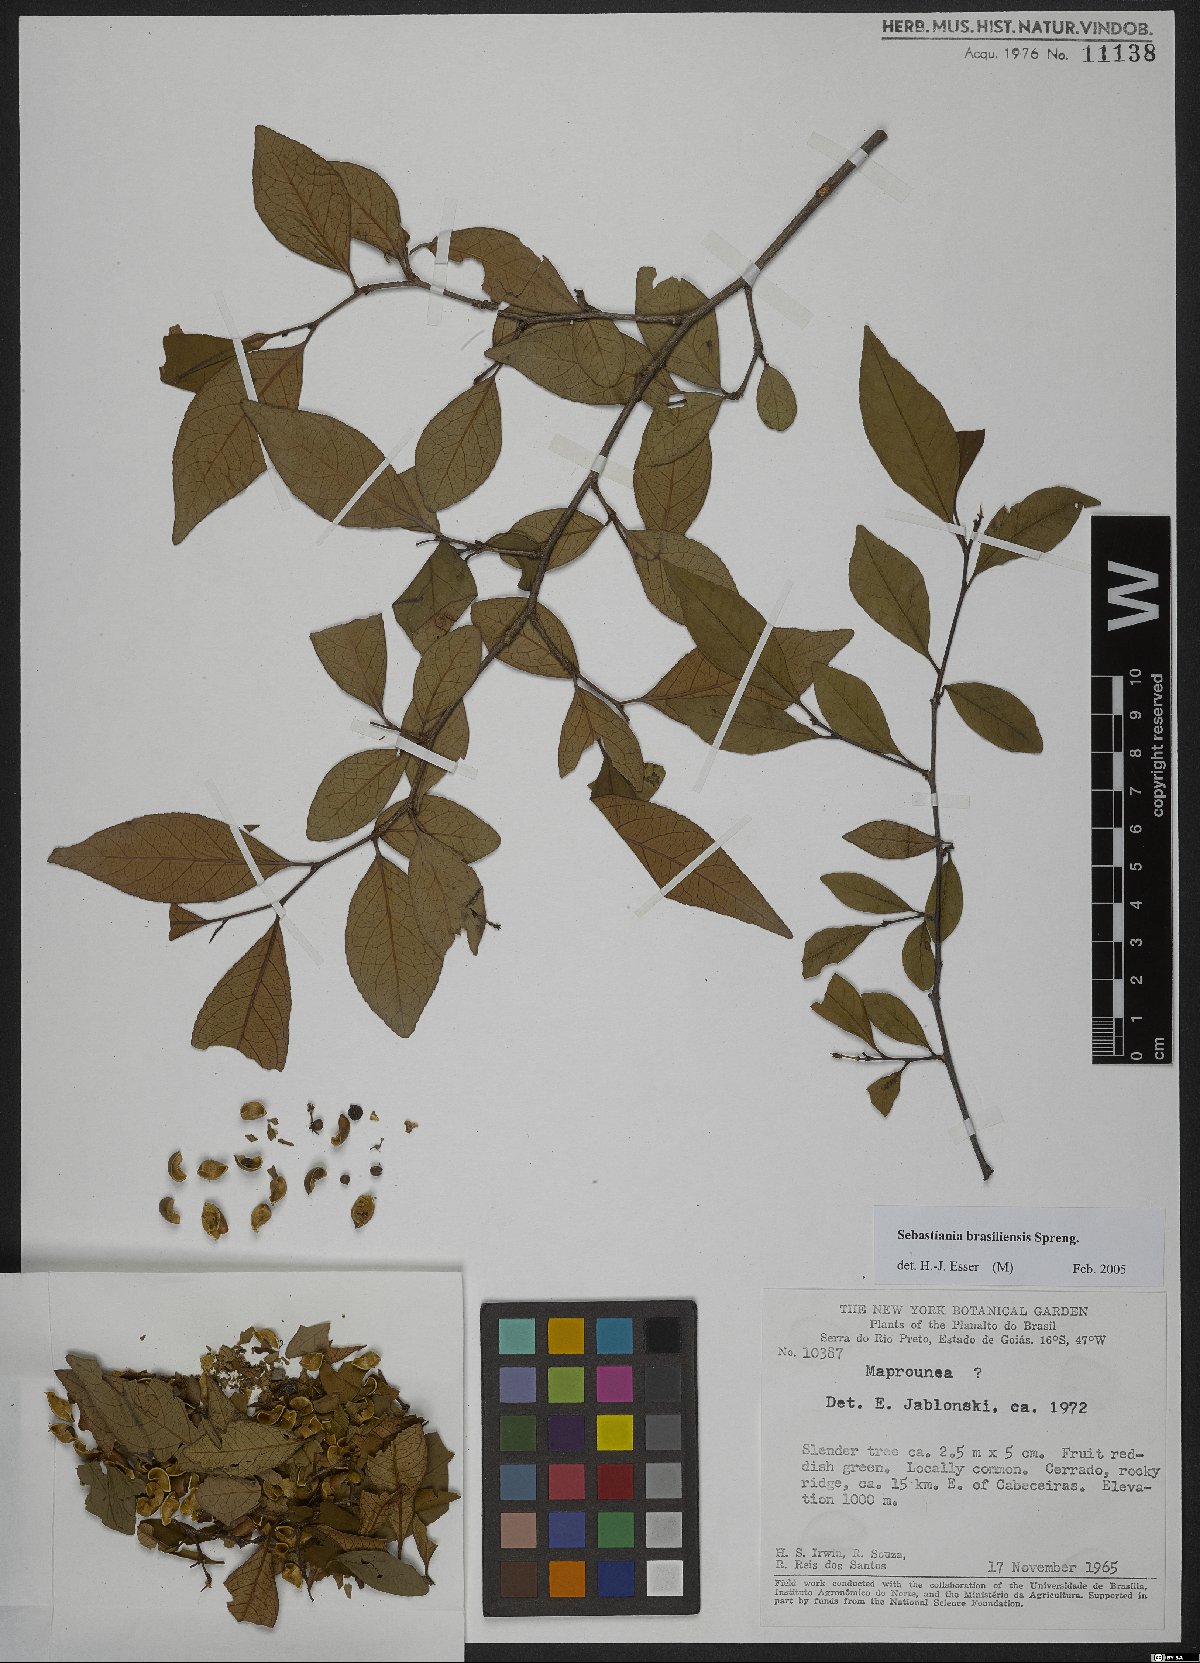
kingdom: Plantae
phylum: Tracheophyta
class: Magnoliopsida
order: Malpighiales
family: Euphorbiaceae
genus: Sebastiania
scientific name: Sebastiania brasiliensis
